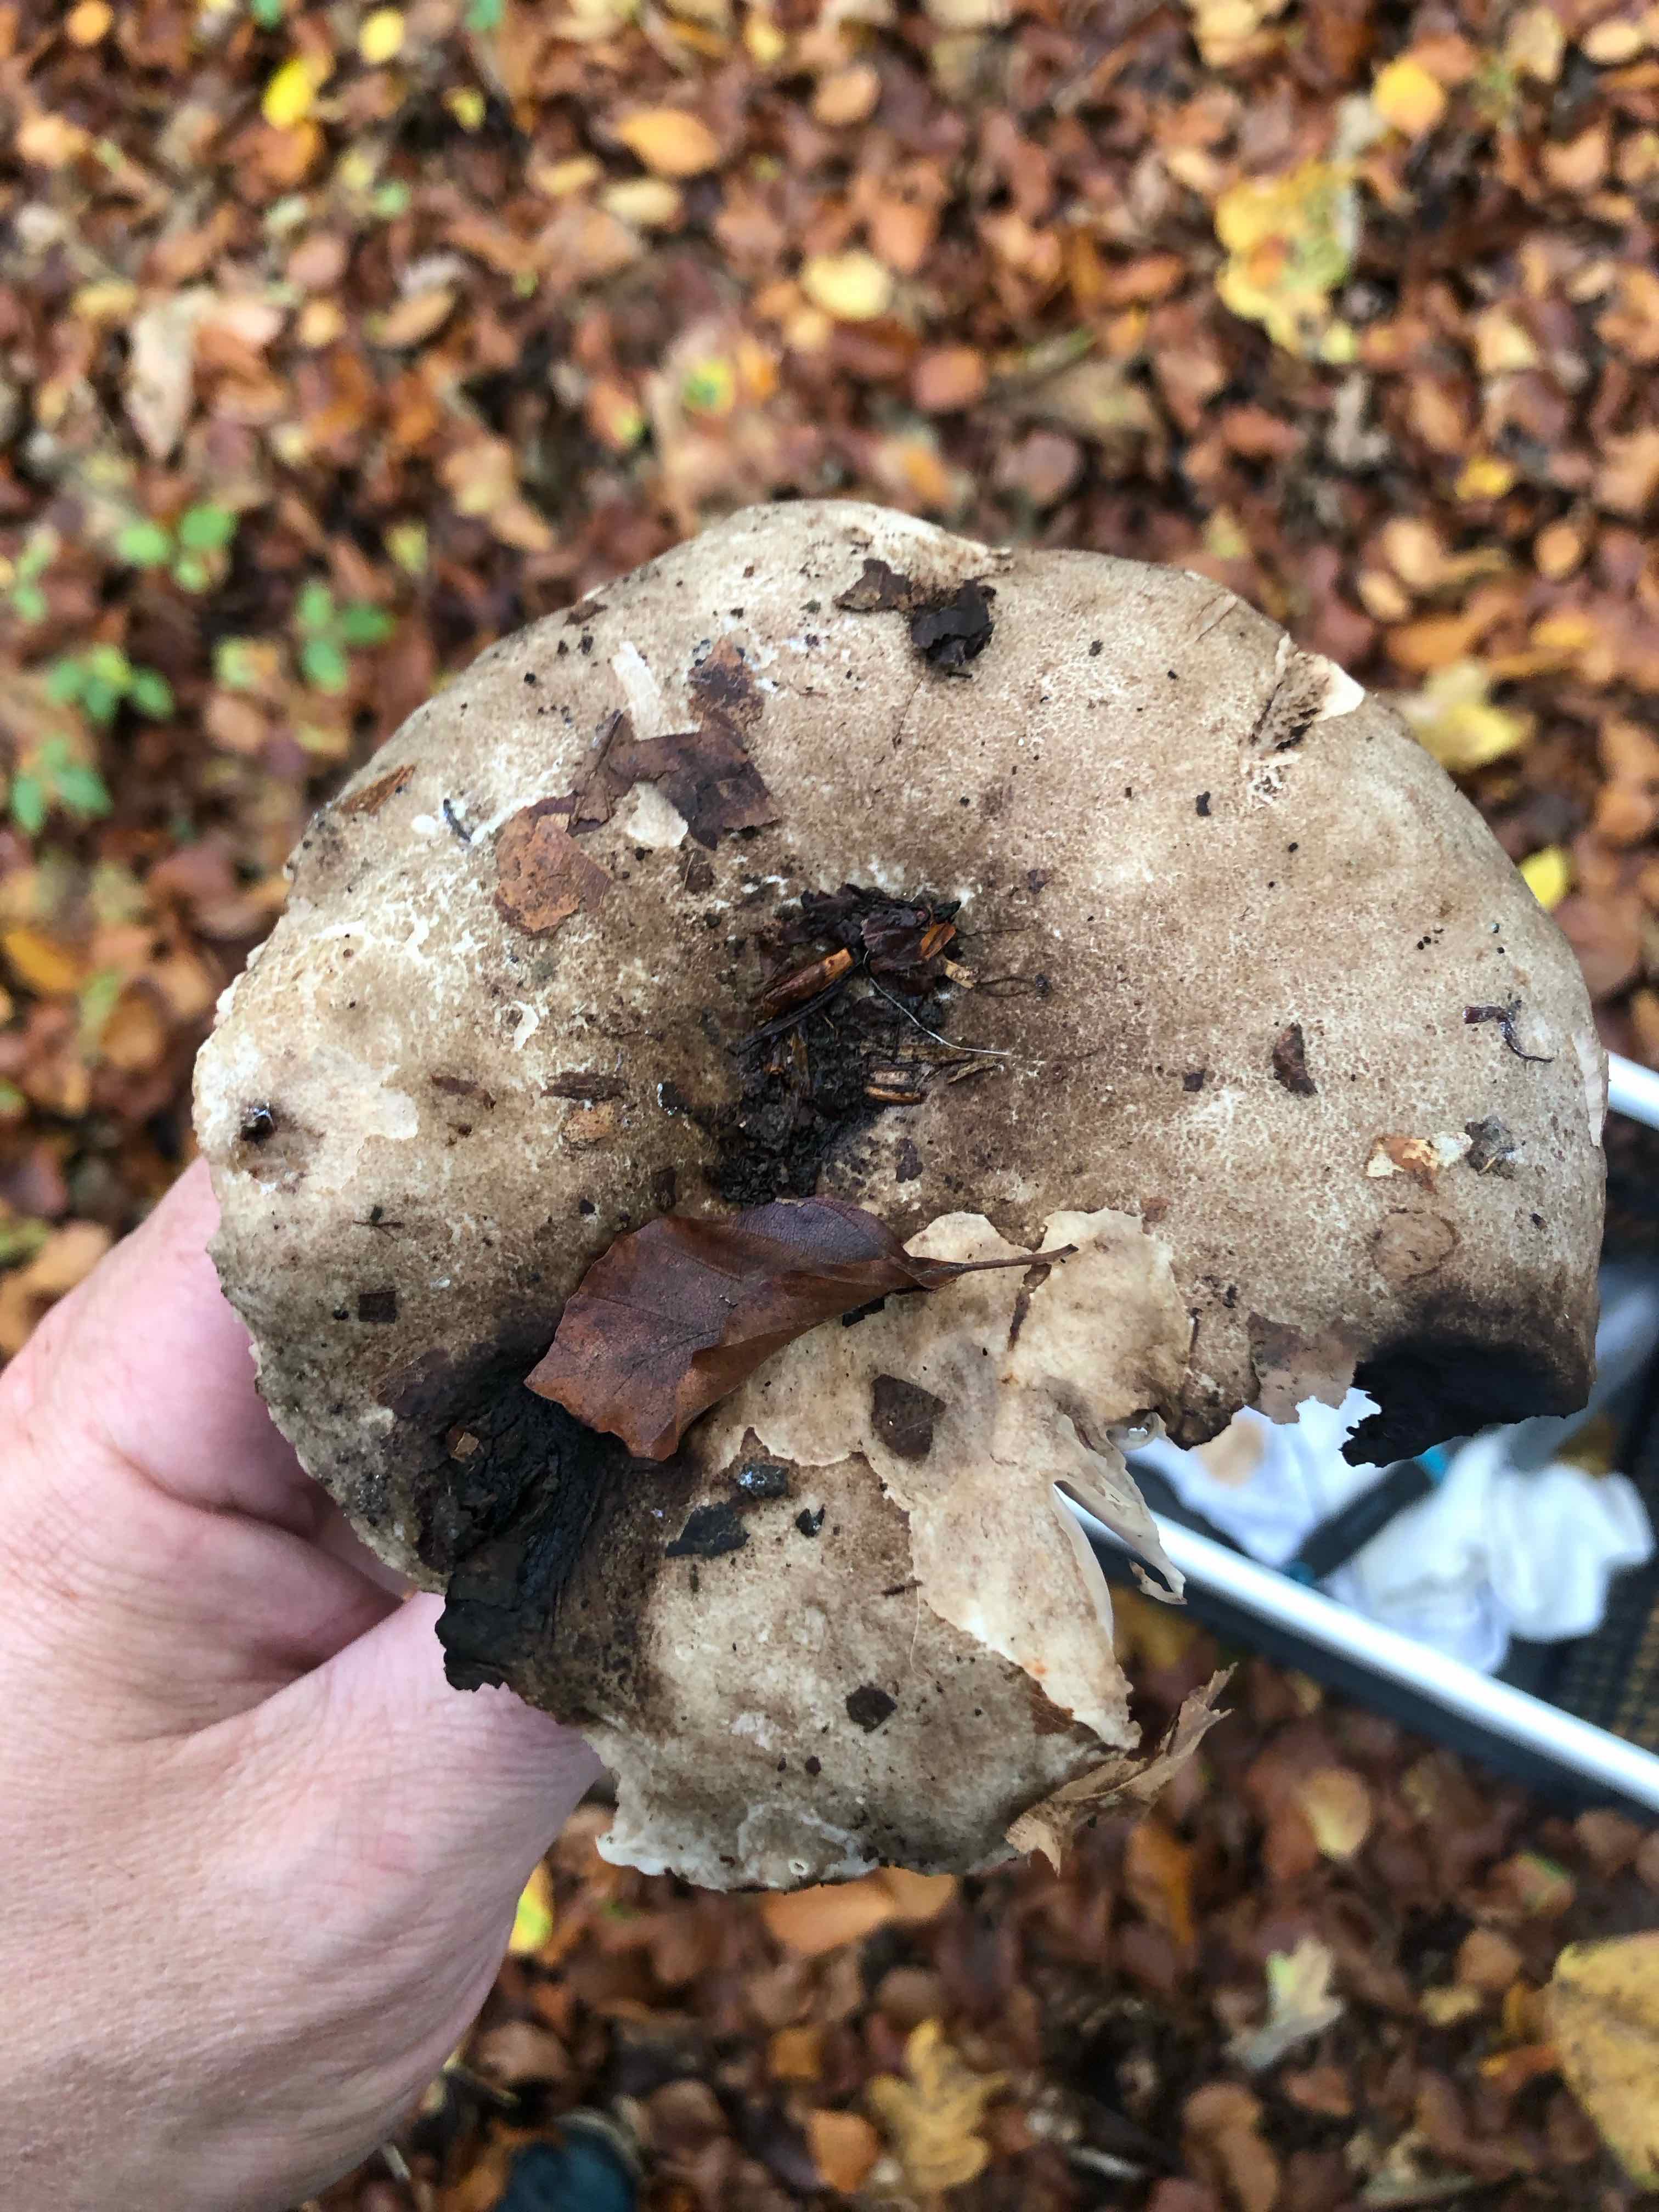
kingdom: Fungi
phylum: Basidiomycota
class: Agaricomycetes
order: Russulales
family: Russulaceae
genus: Russula
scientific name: Russula adusta
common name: sværtende skørhat
